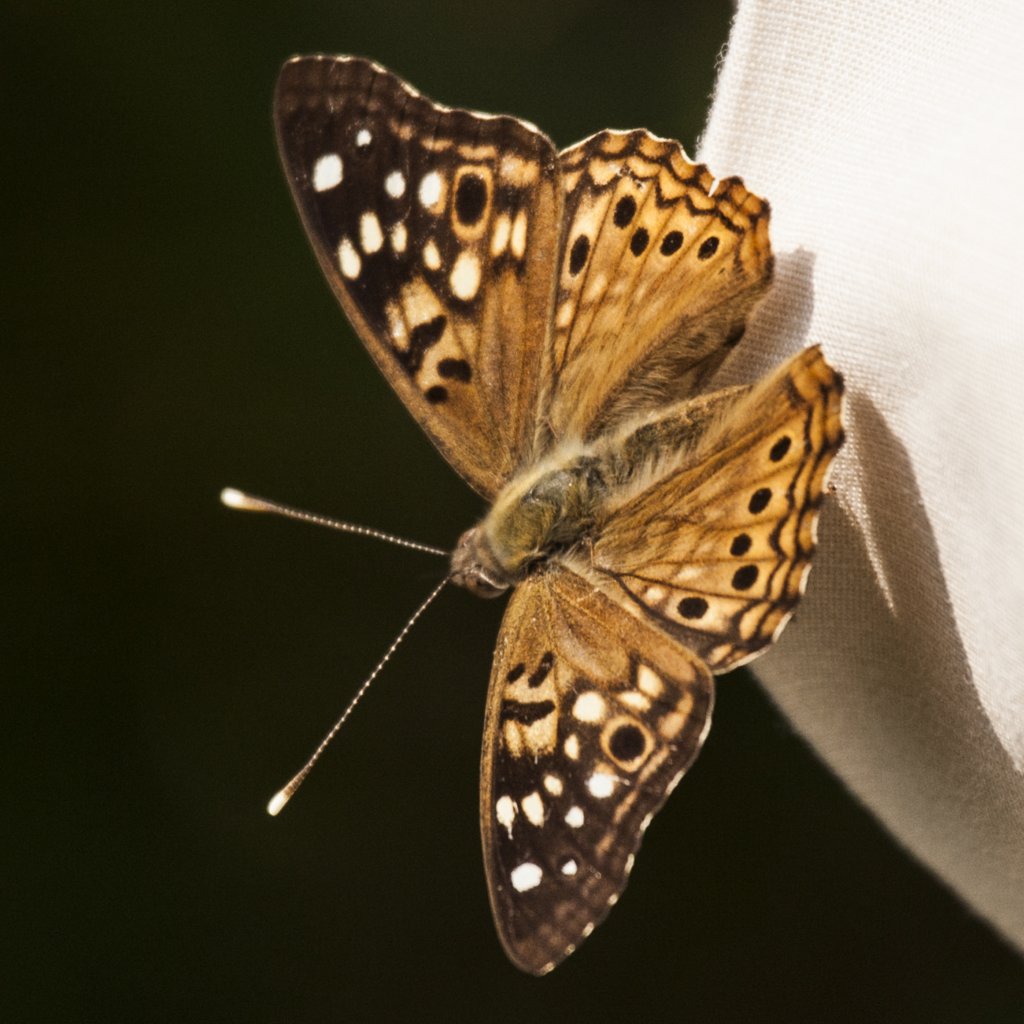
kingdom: Animalia
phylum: Arthropoda
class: Insecta
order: Lepidoptera
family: Nymphalidae
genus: Asterocampa
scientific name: Asterocampa celtis
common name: Hackberry Emperor
